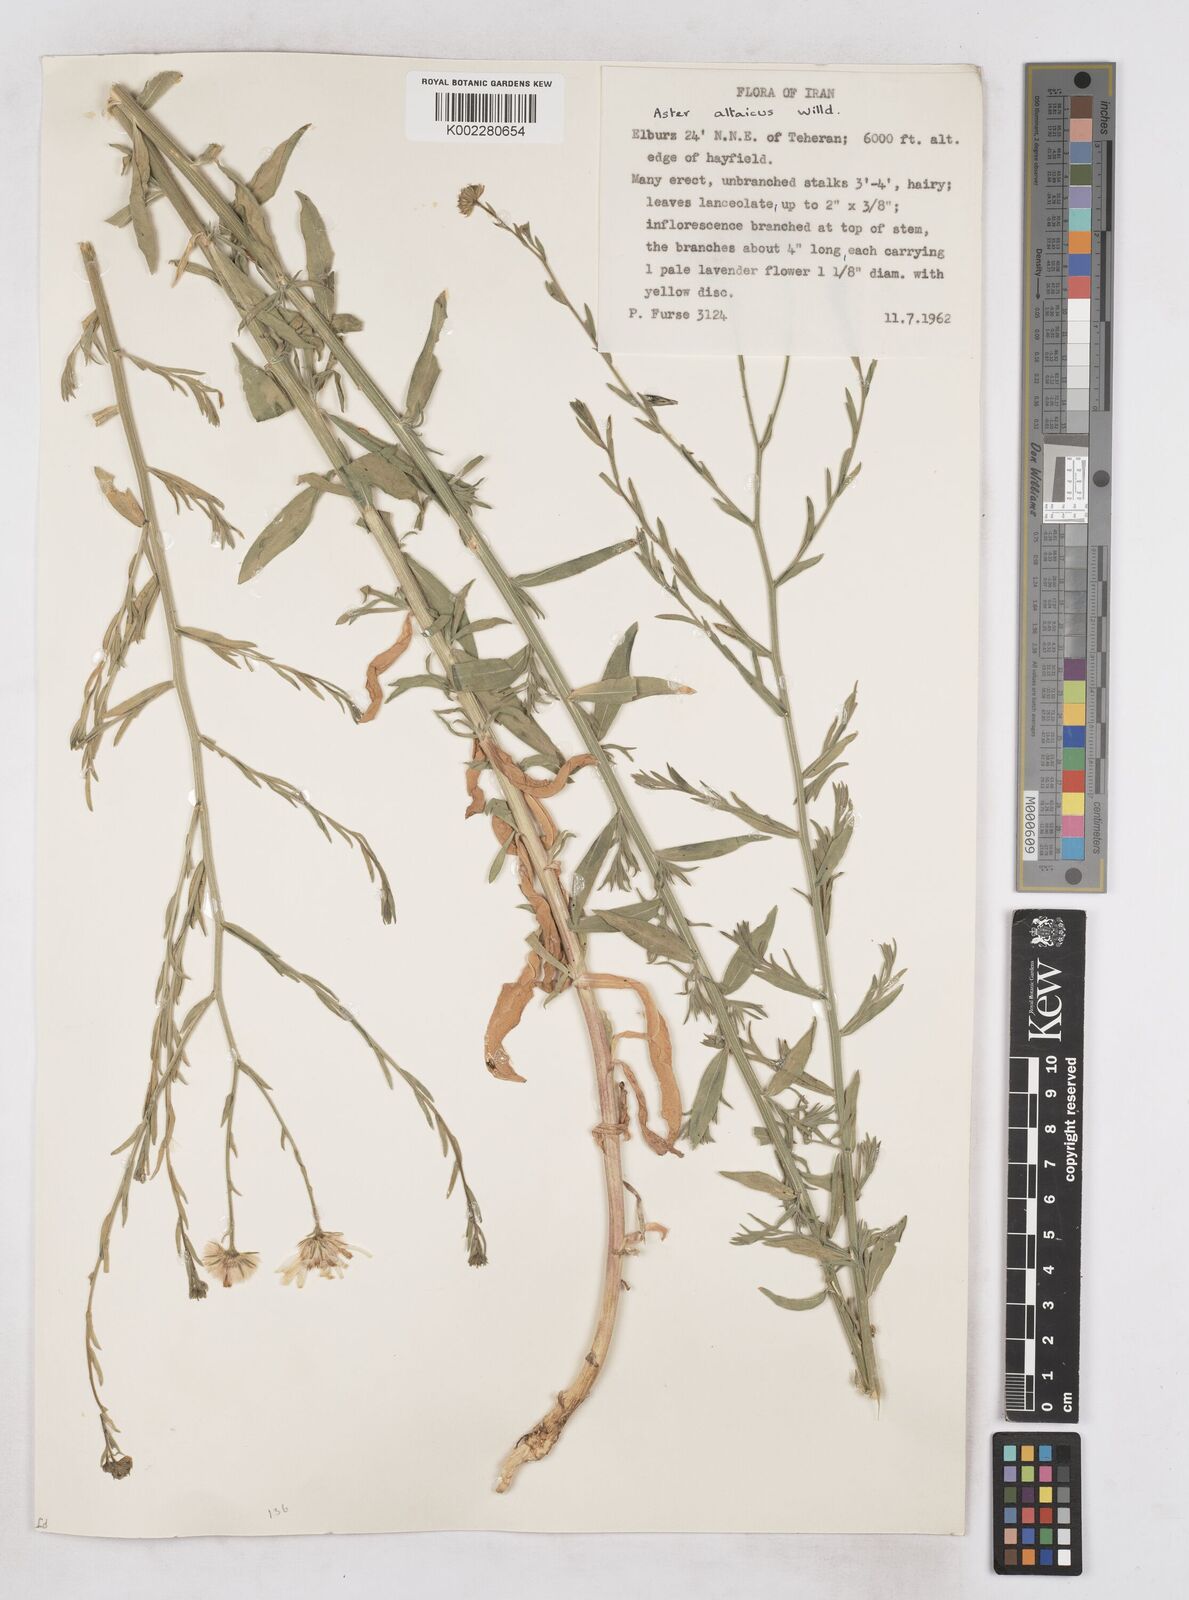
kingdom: Plantae
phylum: Tracheophyta
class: Magnoliopsida
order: Asterales
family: Asteraceae
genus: Heteropappus
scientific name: Heteropappus altaicus
